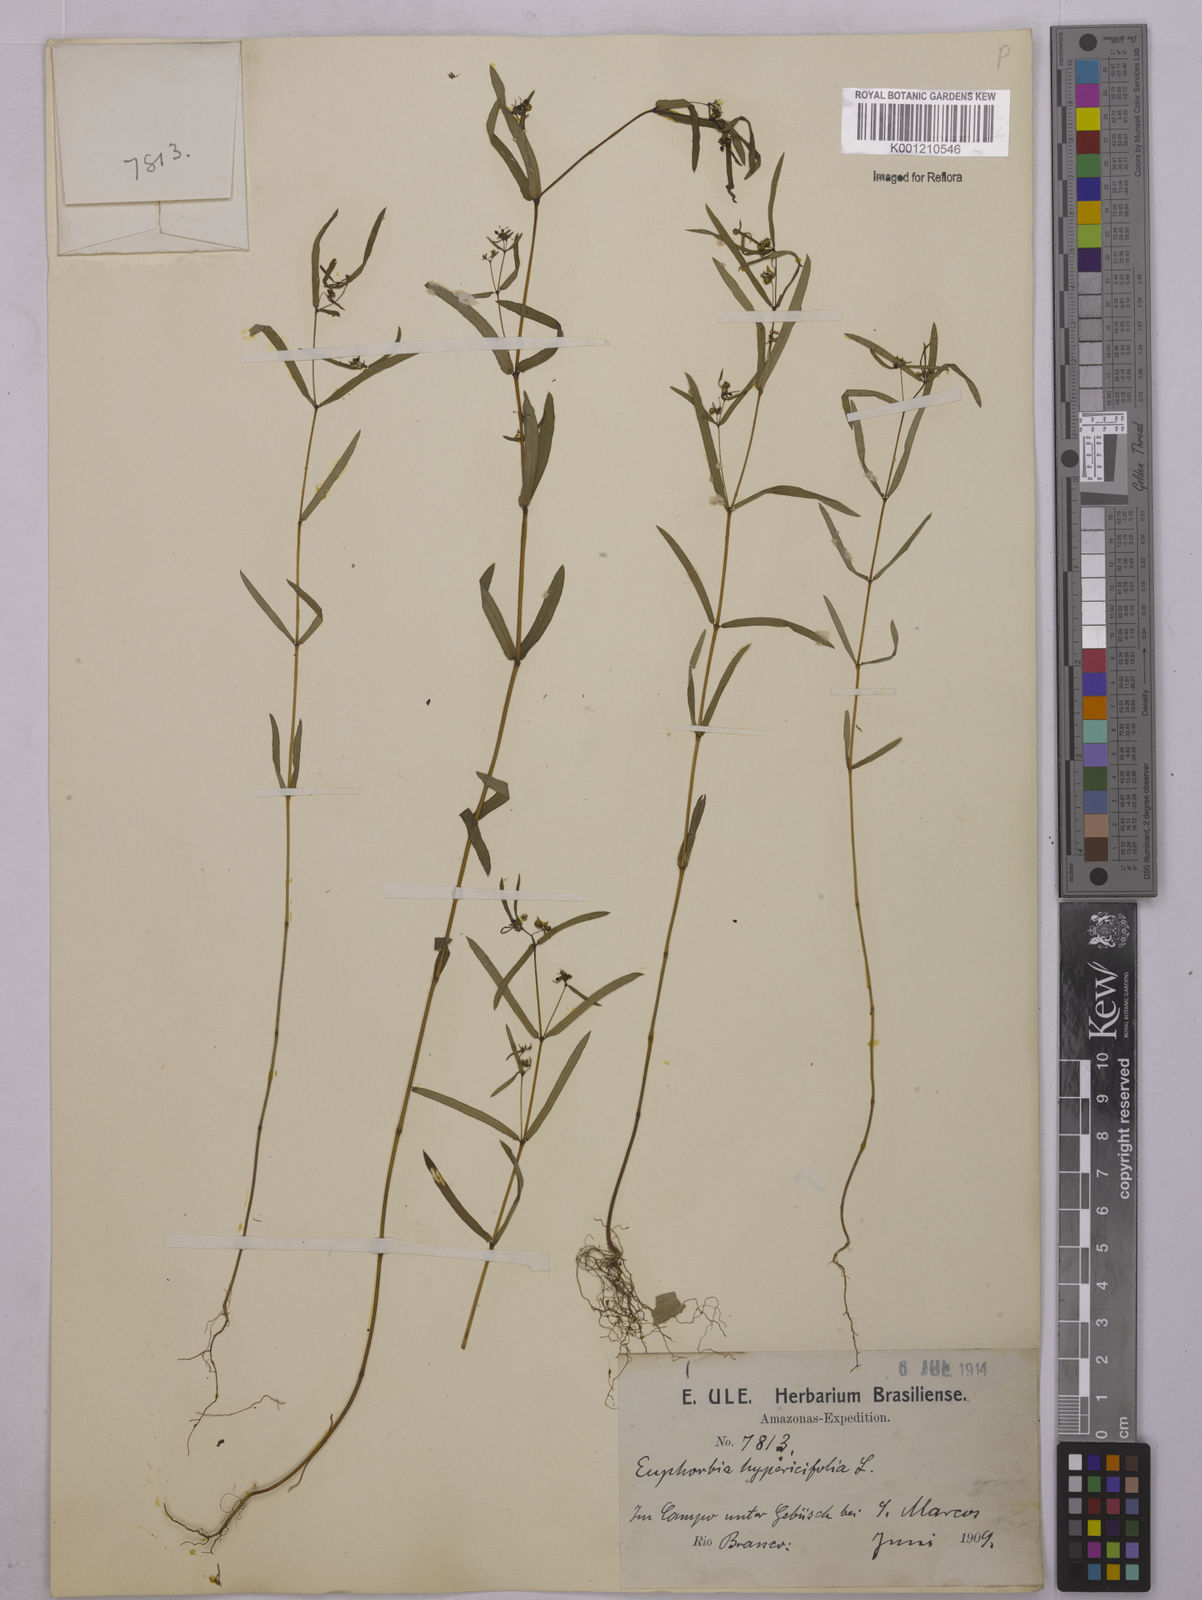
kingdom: Plantae
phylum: Tracheophyta
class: Magnoliopsida
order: Malpighiales
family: Euphorbiaceae
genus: Euphorbia
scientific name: Euphorbia hypericifolia
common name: Graceful sandmat
